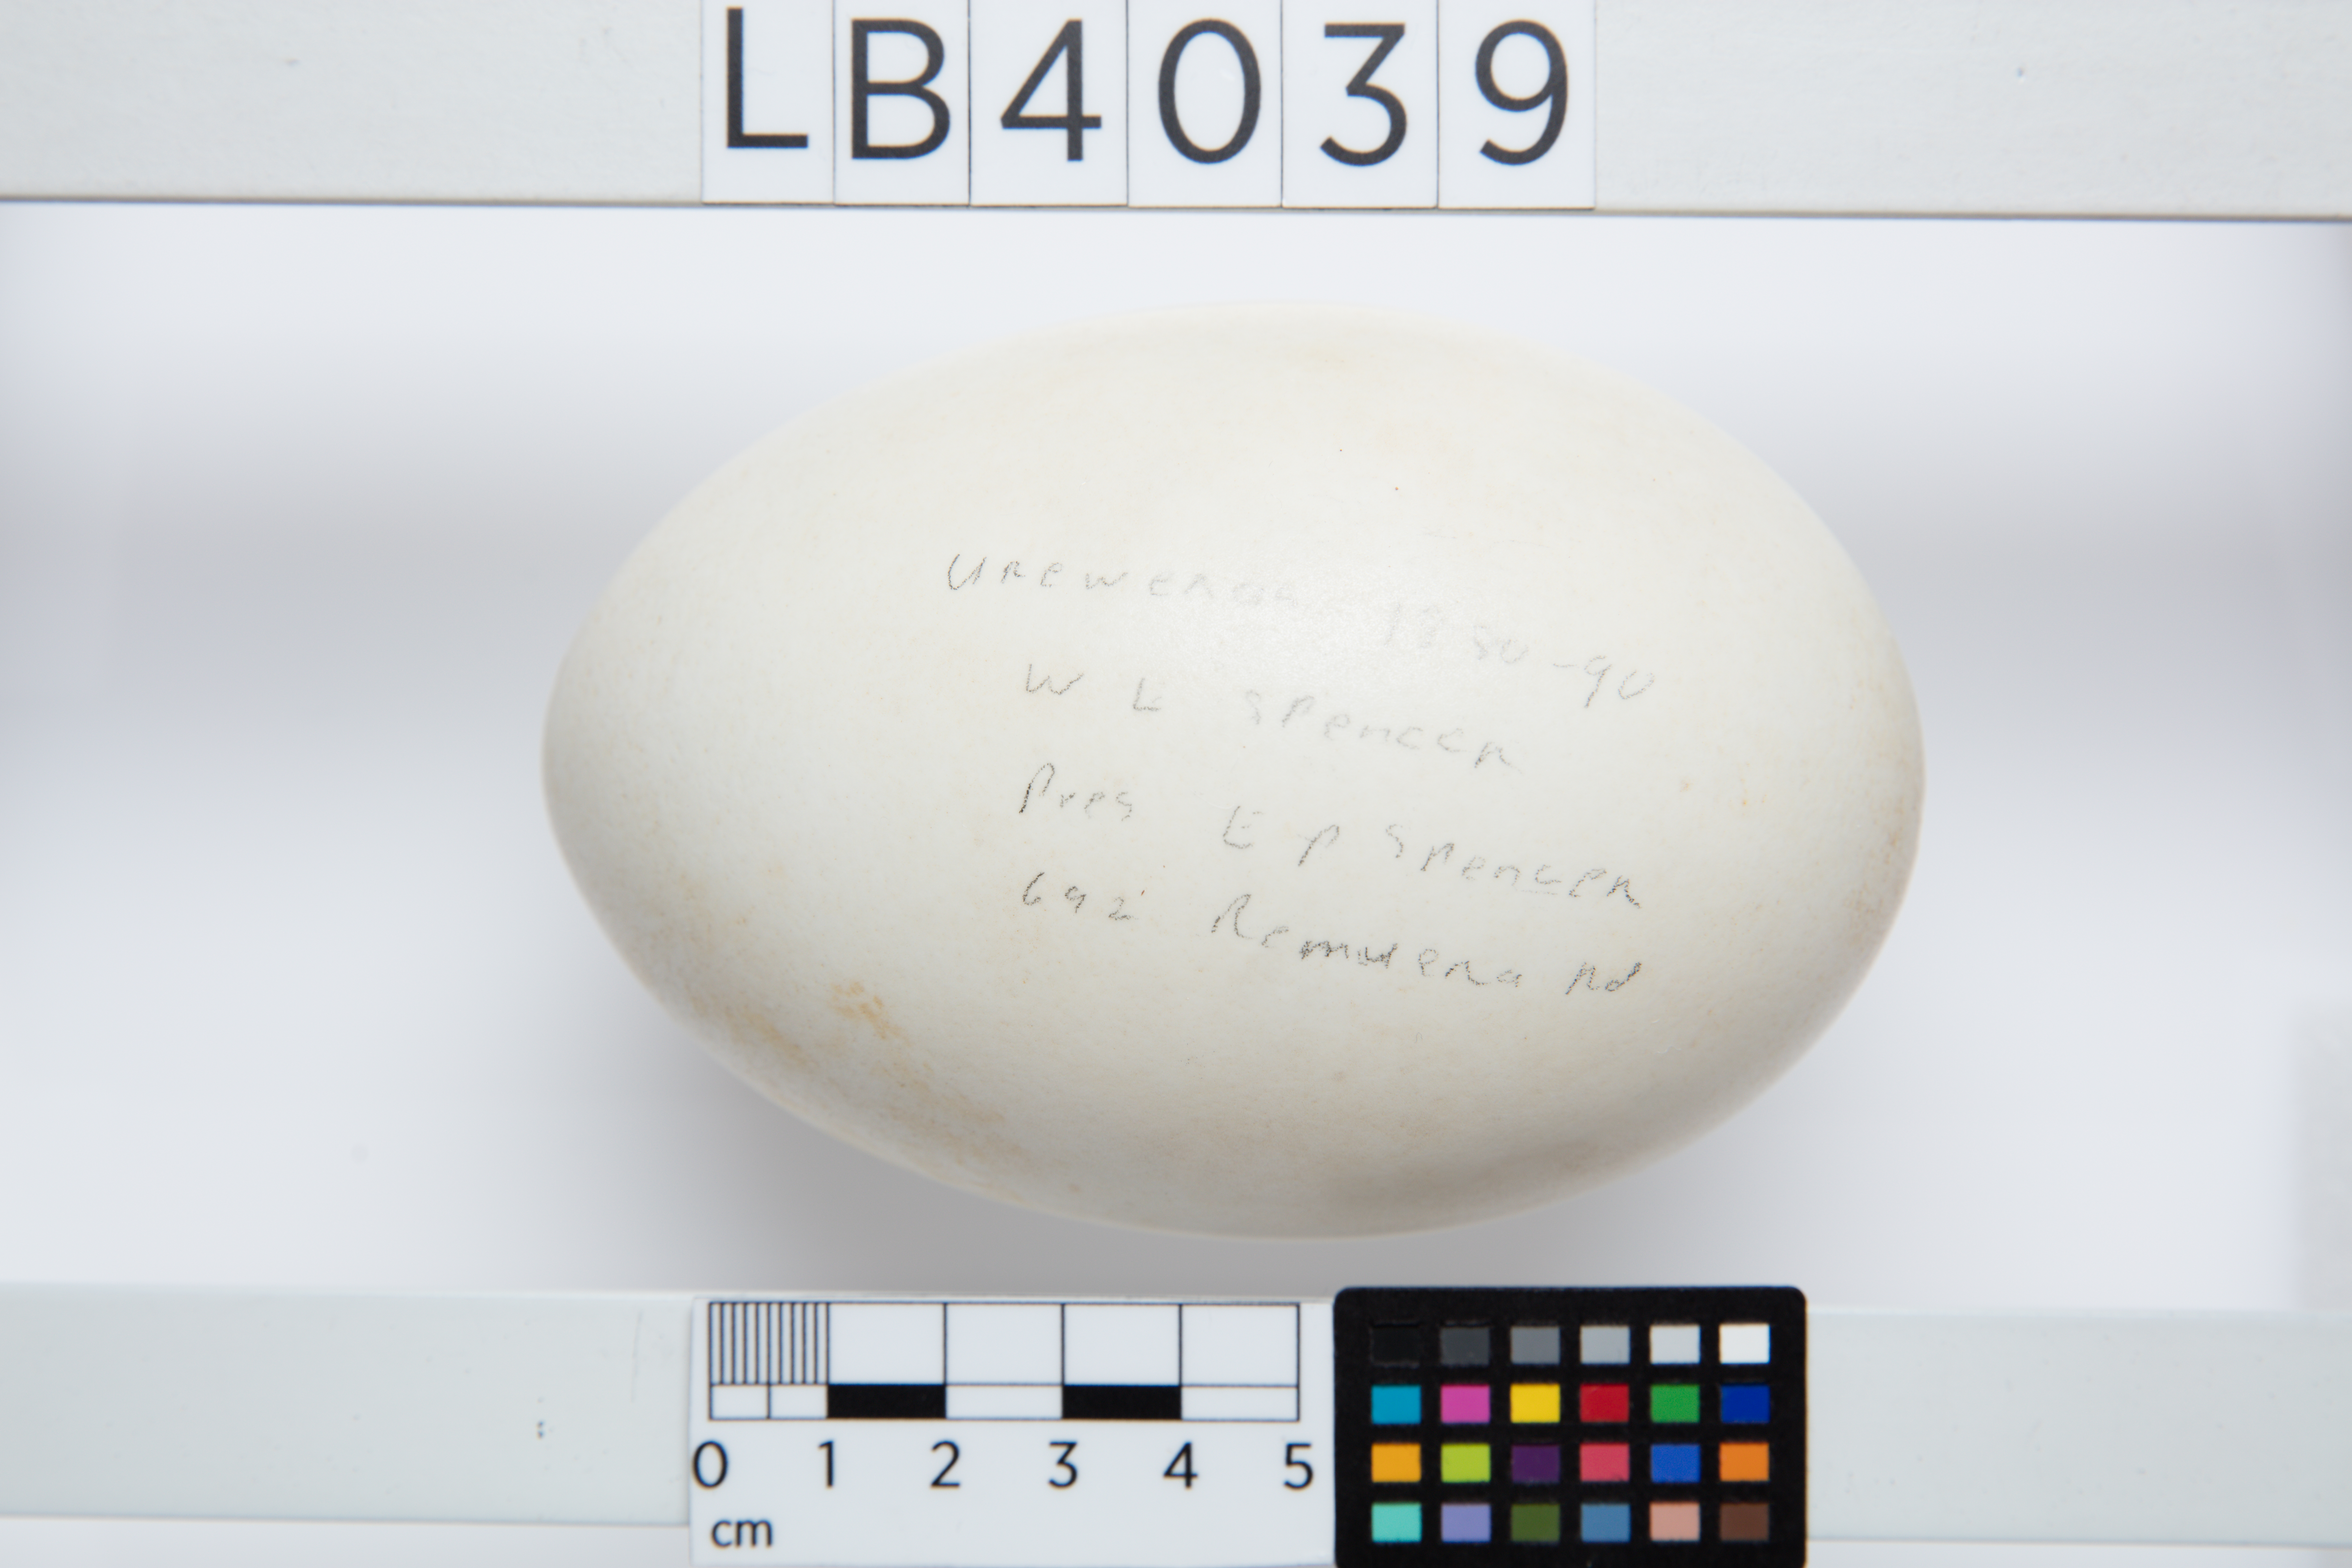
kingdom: Animalia
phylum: Chordata
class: Aves
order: Apterygiformes
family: Apterygidae
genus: Apteryx
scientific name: Apteryx mantelli
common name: North island brown kiwi
